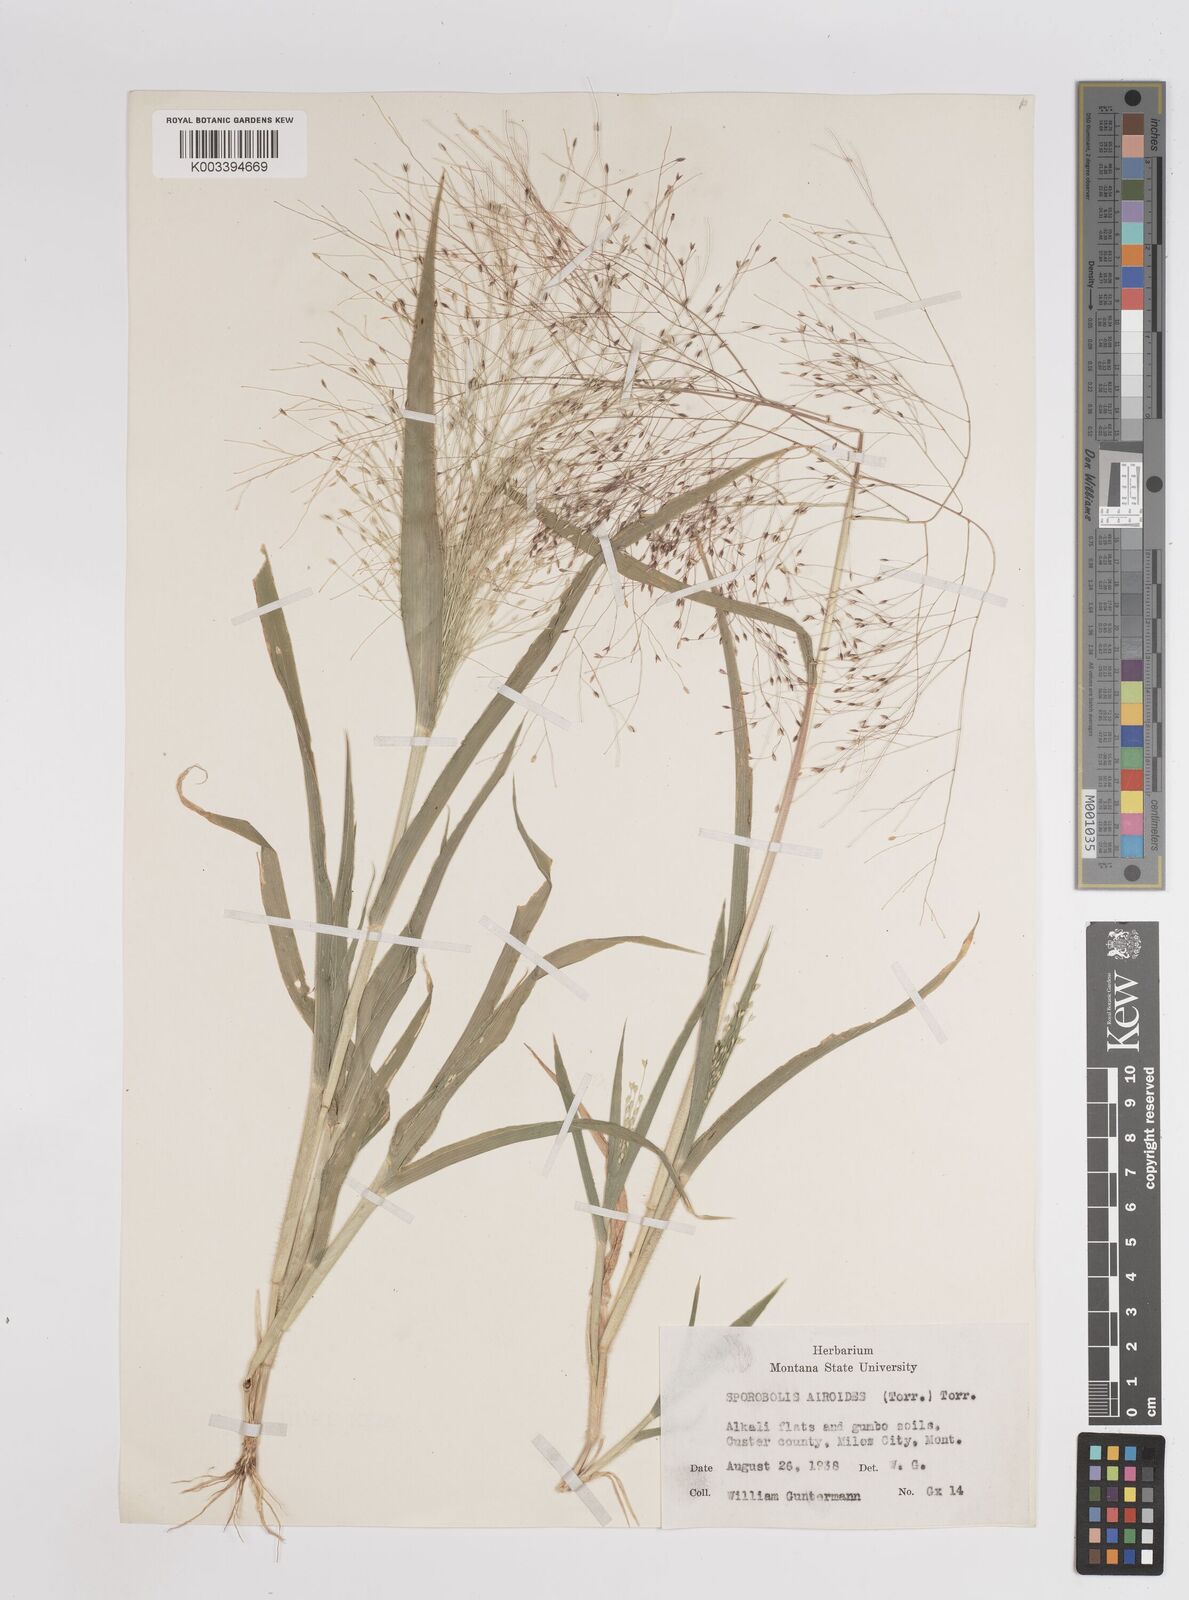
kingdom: Plantae
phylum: Tracheophyta
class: Liliopsida
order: Poales
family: Poaceae
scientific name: Poaceae
